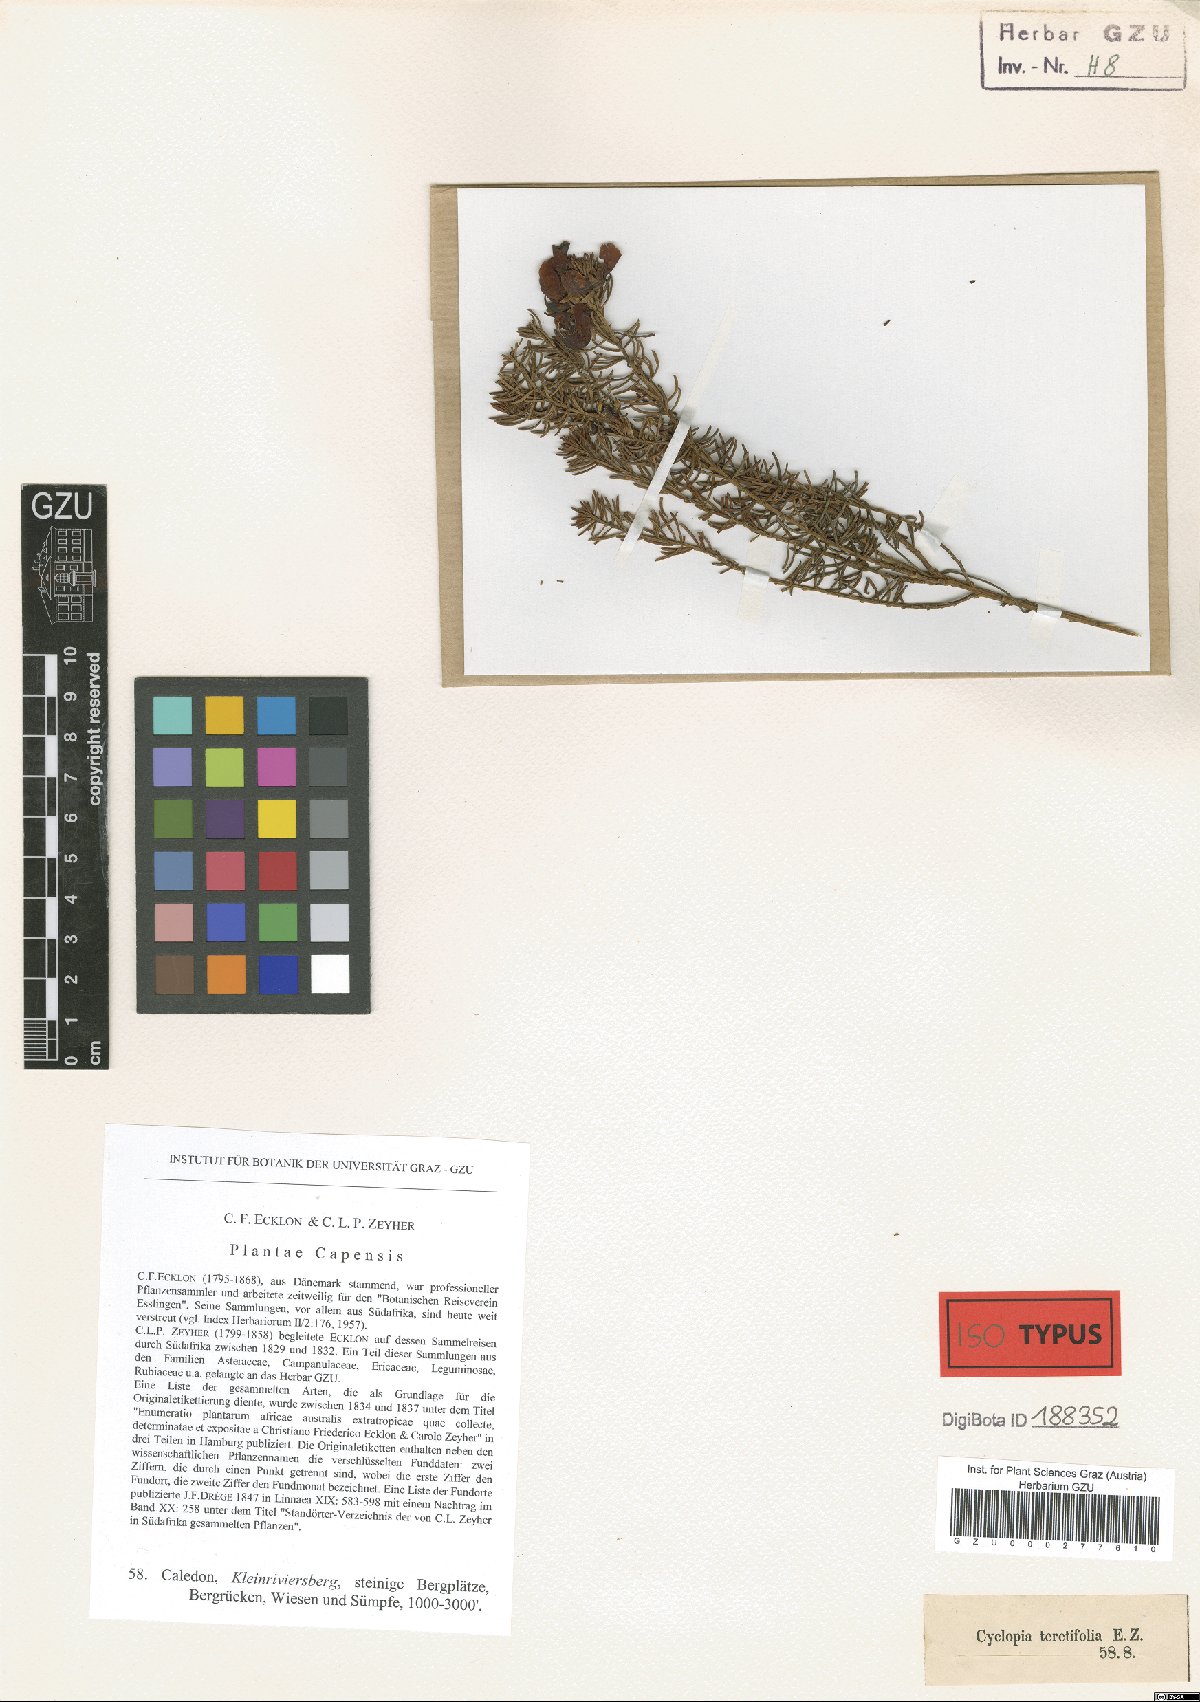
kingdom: Plantae
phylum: Tracheophyta
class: Magnoliopsida
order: Fabales
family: Fabaceae
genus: Cyclopia
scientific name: Cyclopia genistoides
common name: Honeybush tea
